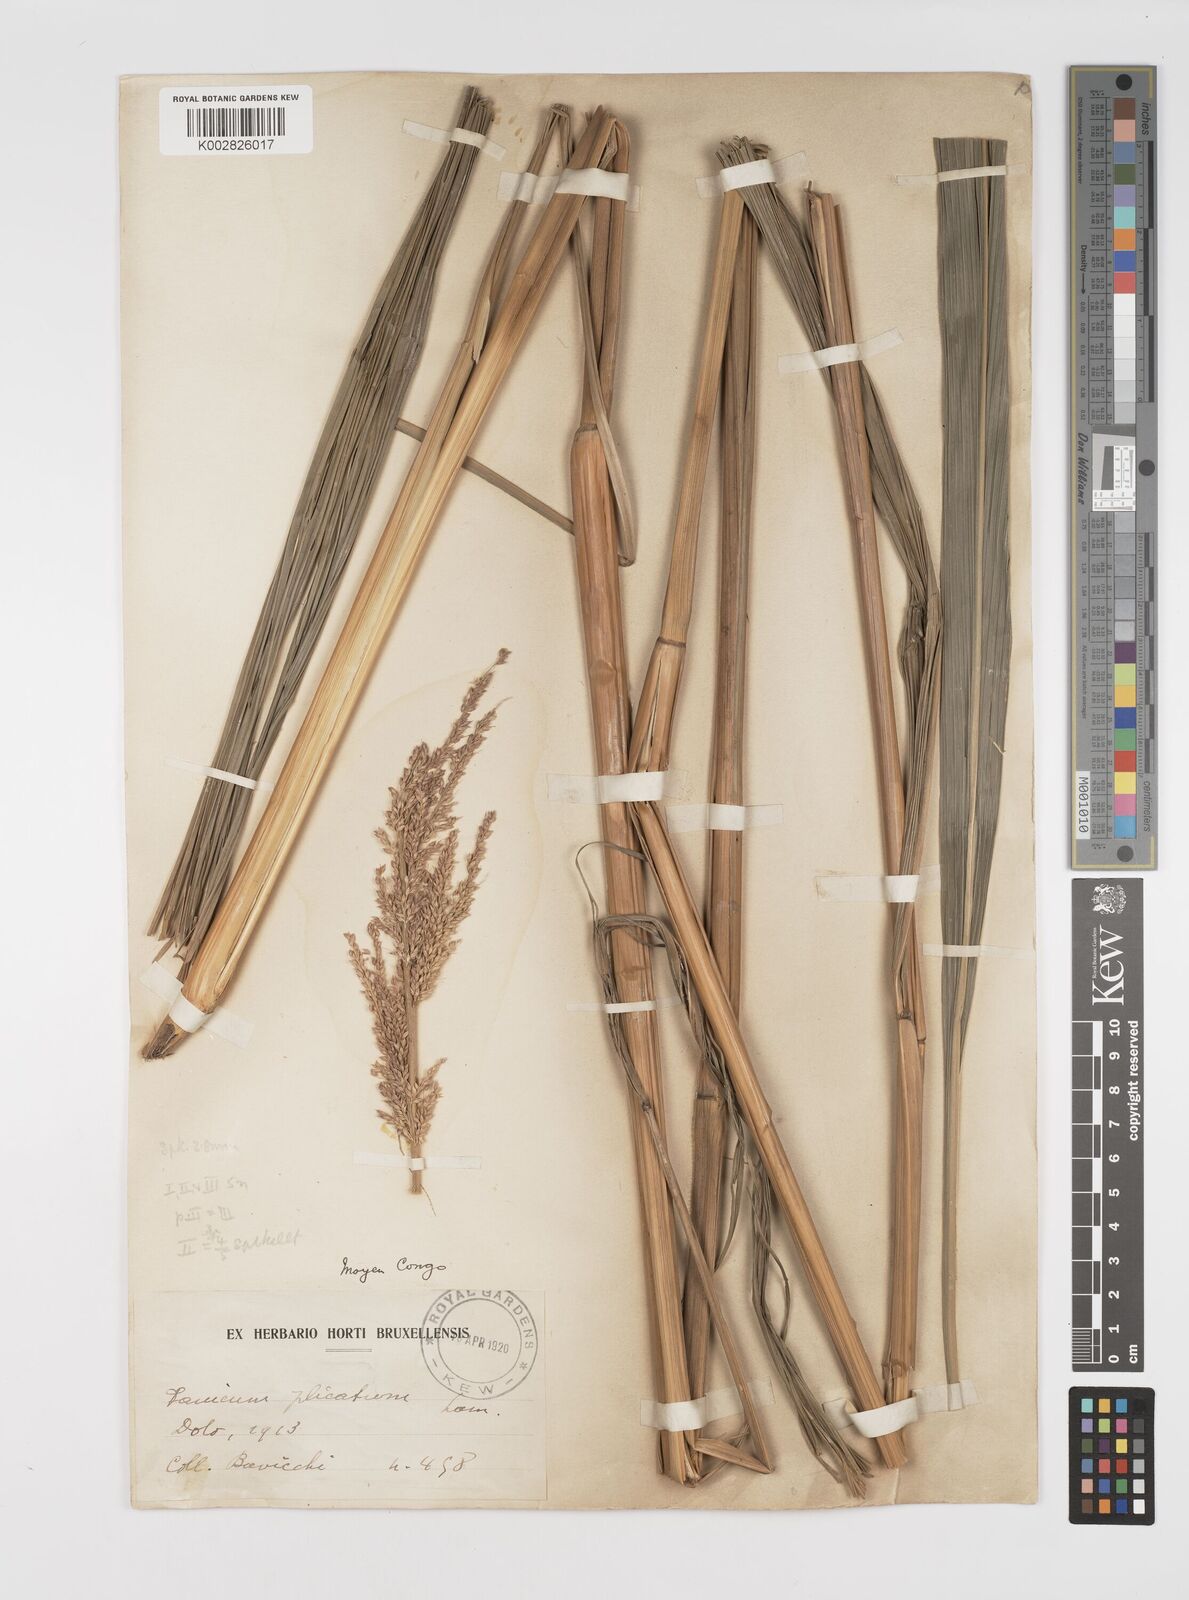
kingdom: Plantae
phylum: Tracheophyta
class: Liliopsida
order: Poales
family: Poaceae
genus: Setaria
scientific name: Setaria megaphylla
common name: Bigleaf bristlegrass
